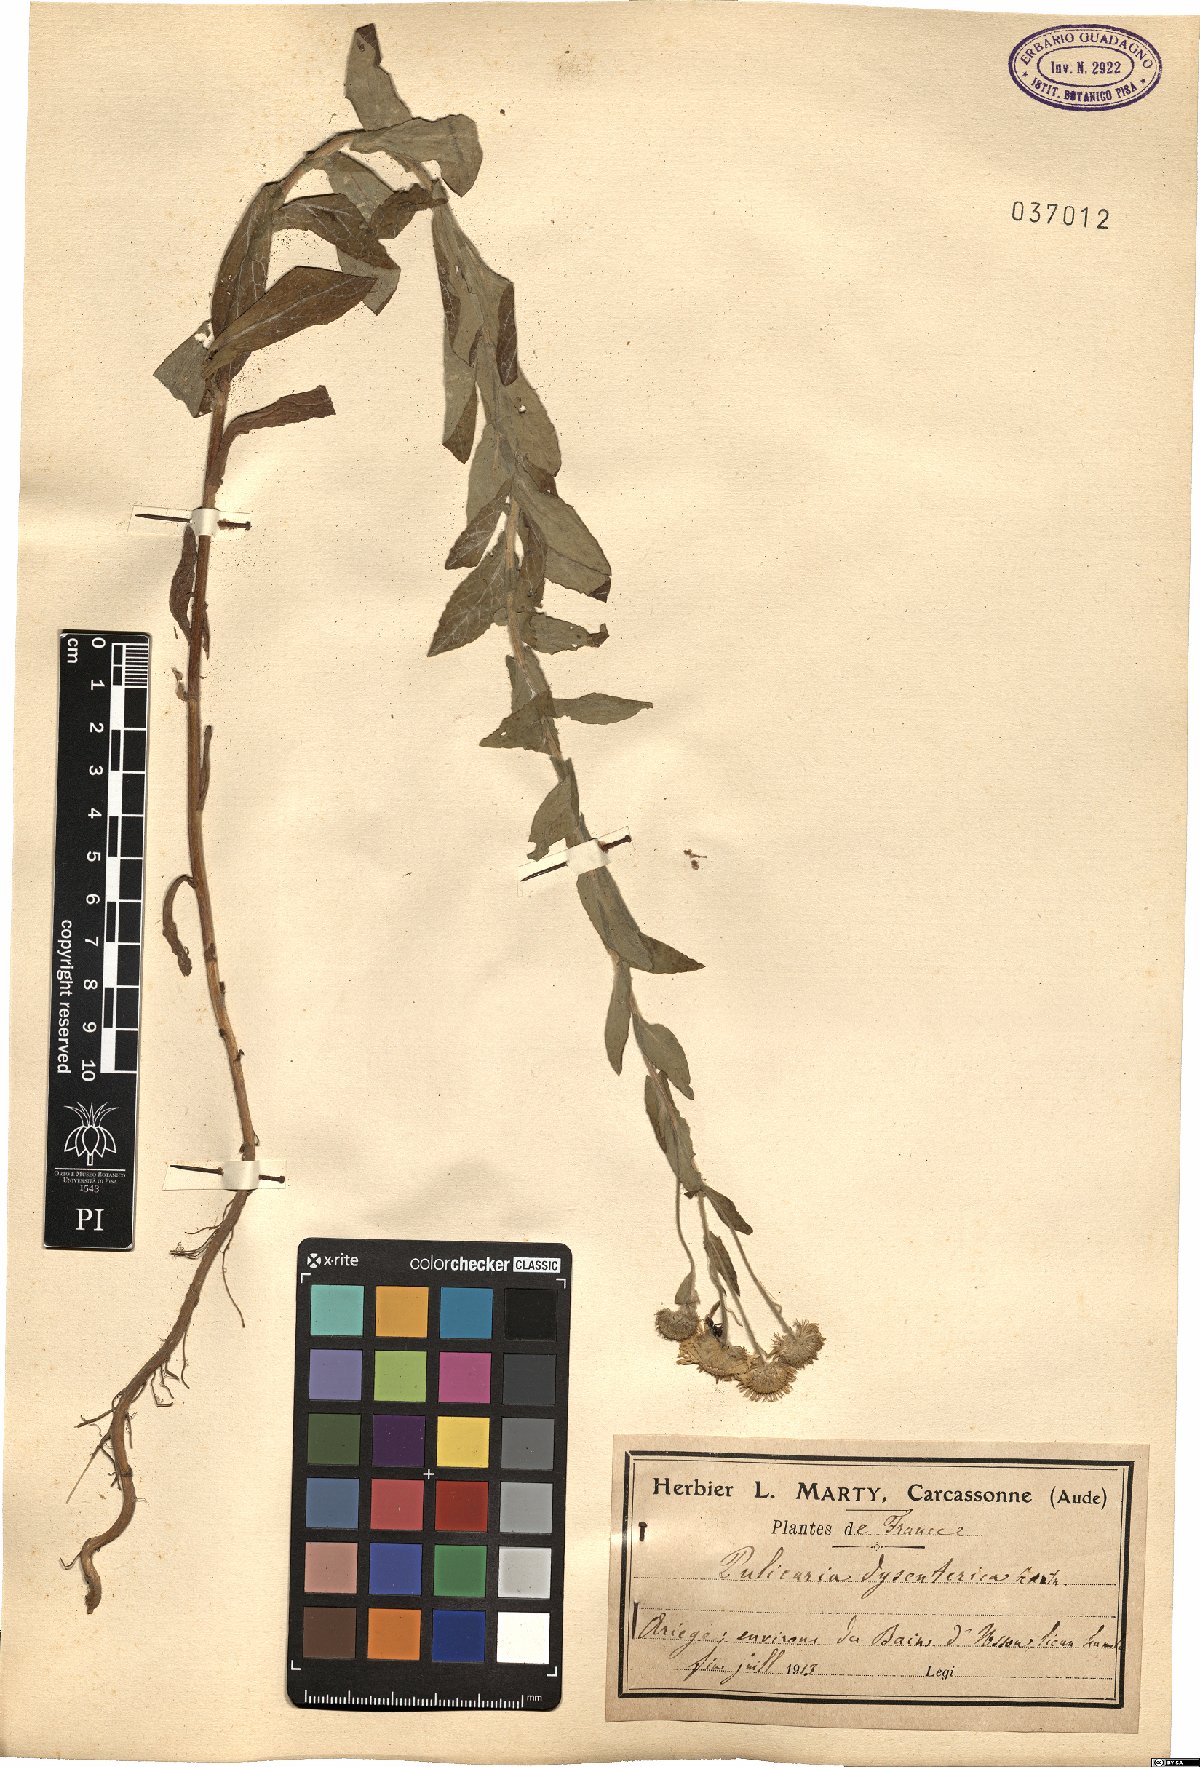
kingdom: Plantae
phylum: Tracheophyta
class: Magnoliopsida
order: Asterales
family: Asteraceae
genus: Pulicaria
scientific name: Pulicaria dysenterica
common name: Common fleabane
